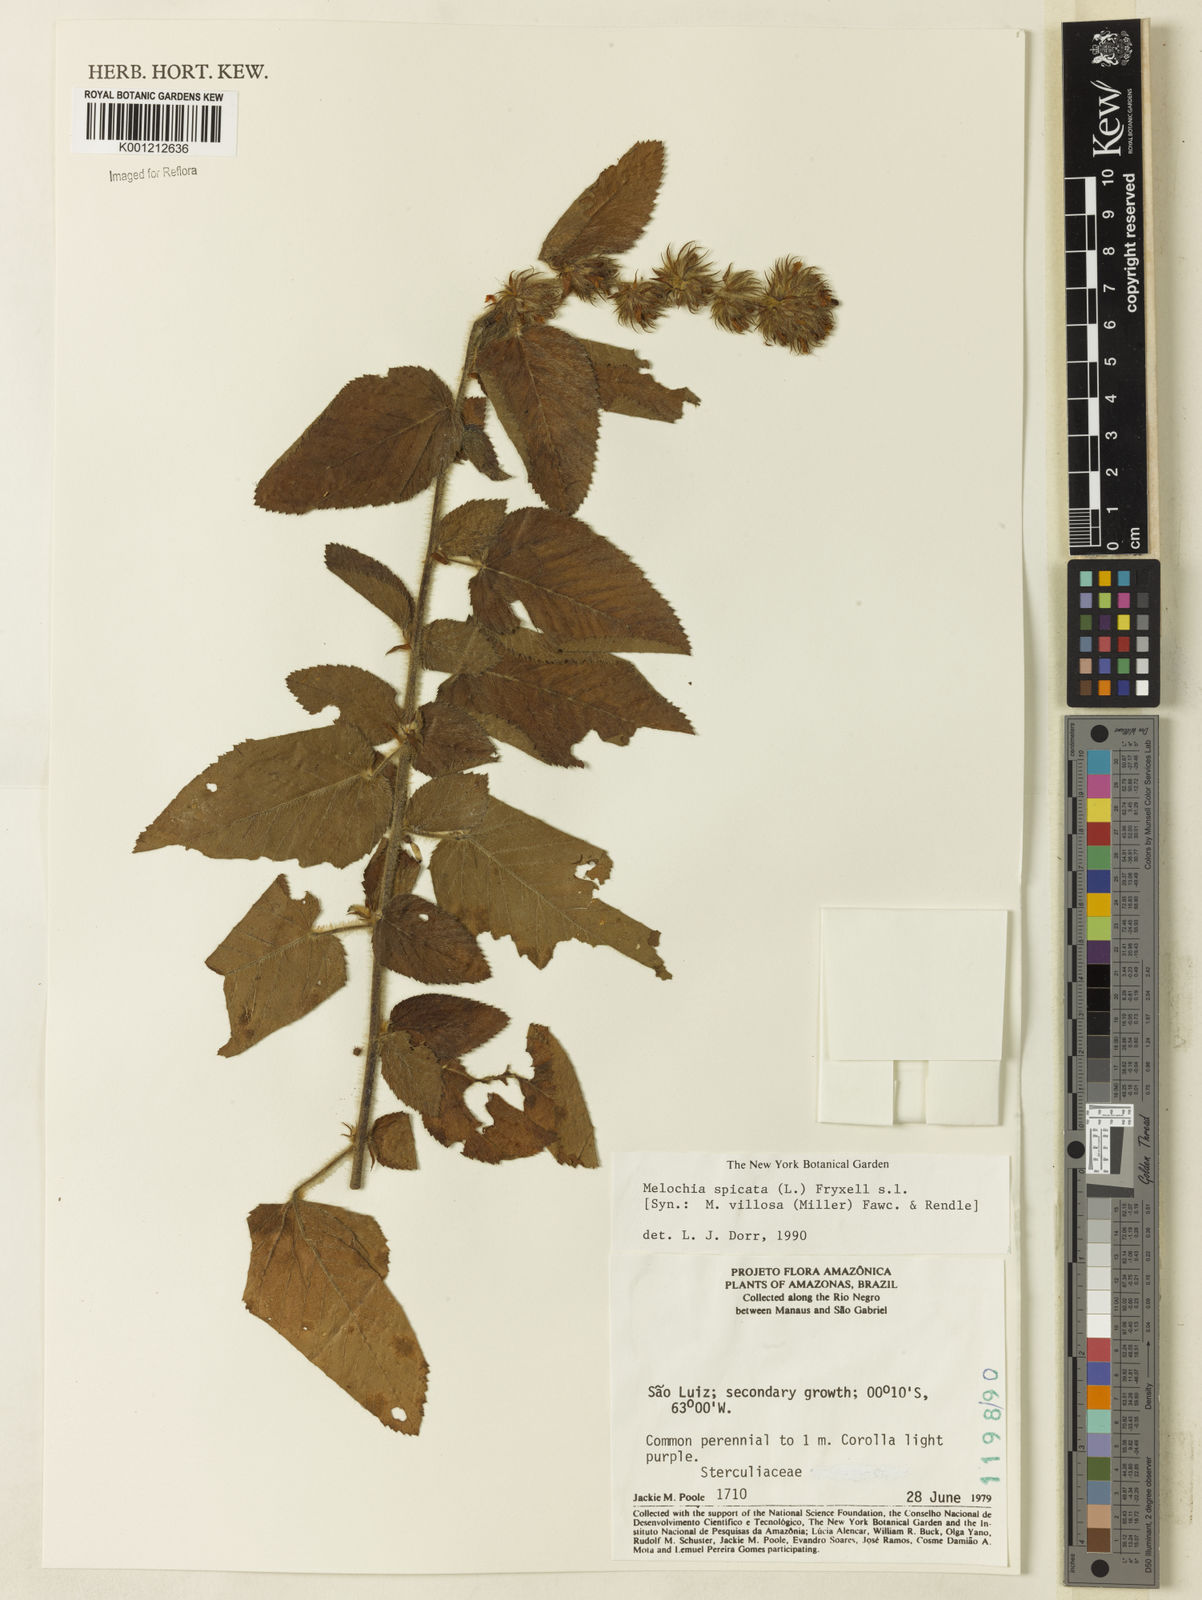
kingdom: Plantae
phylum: Tracheophyta
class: Magnoliopsida
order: Malvales
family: Malvaceae
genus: Melochia
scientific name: Melochia spicata
